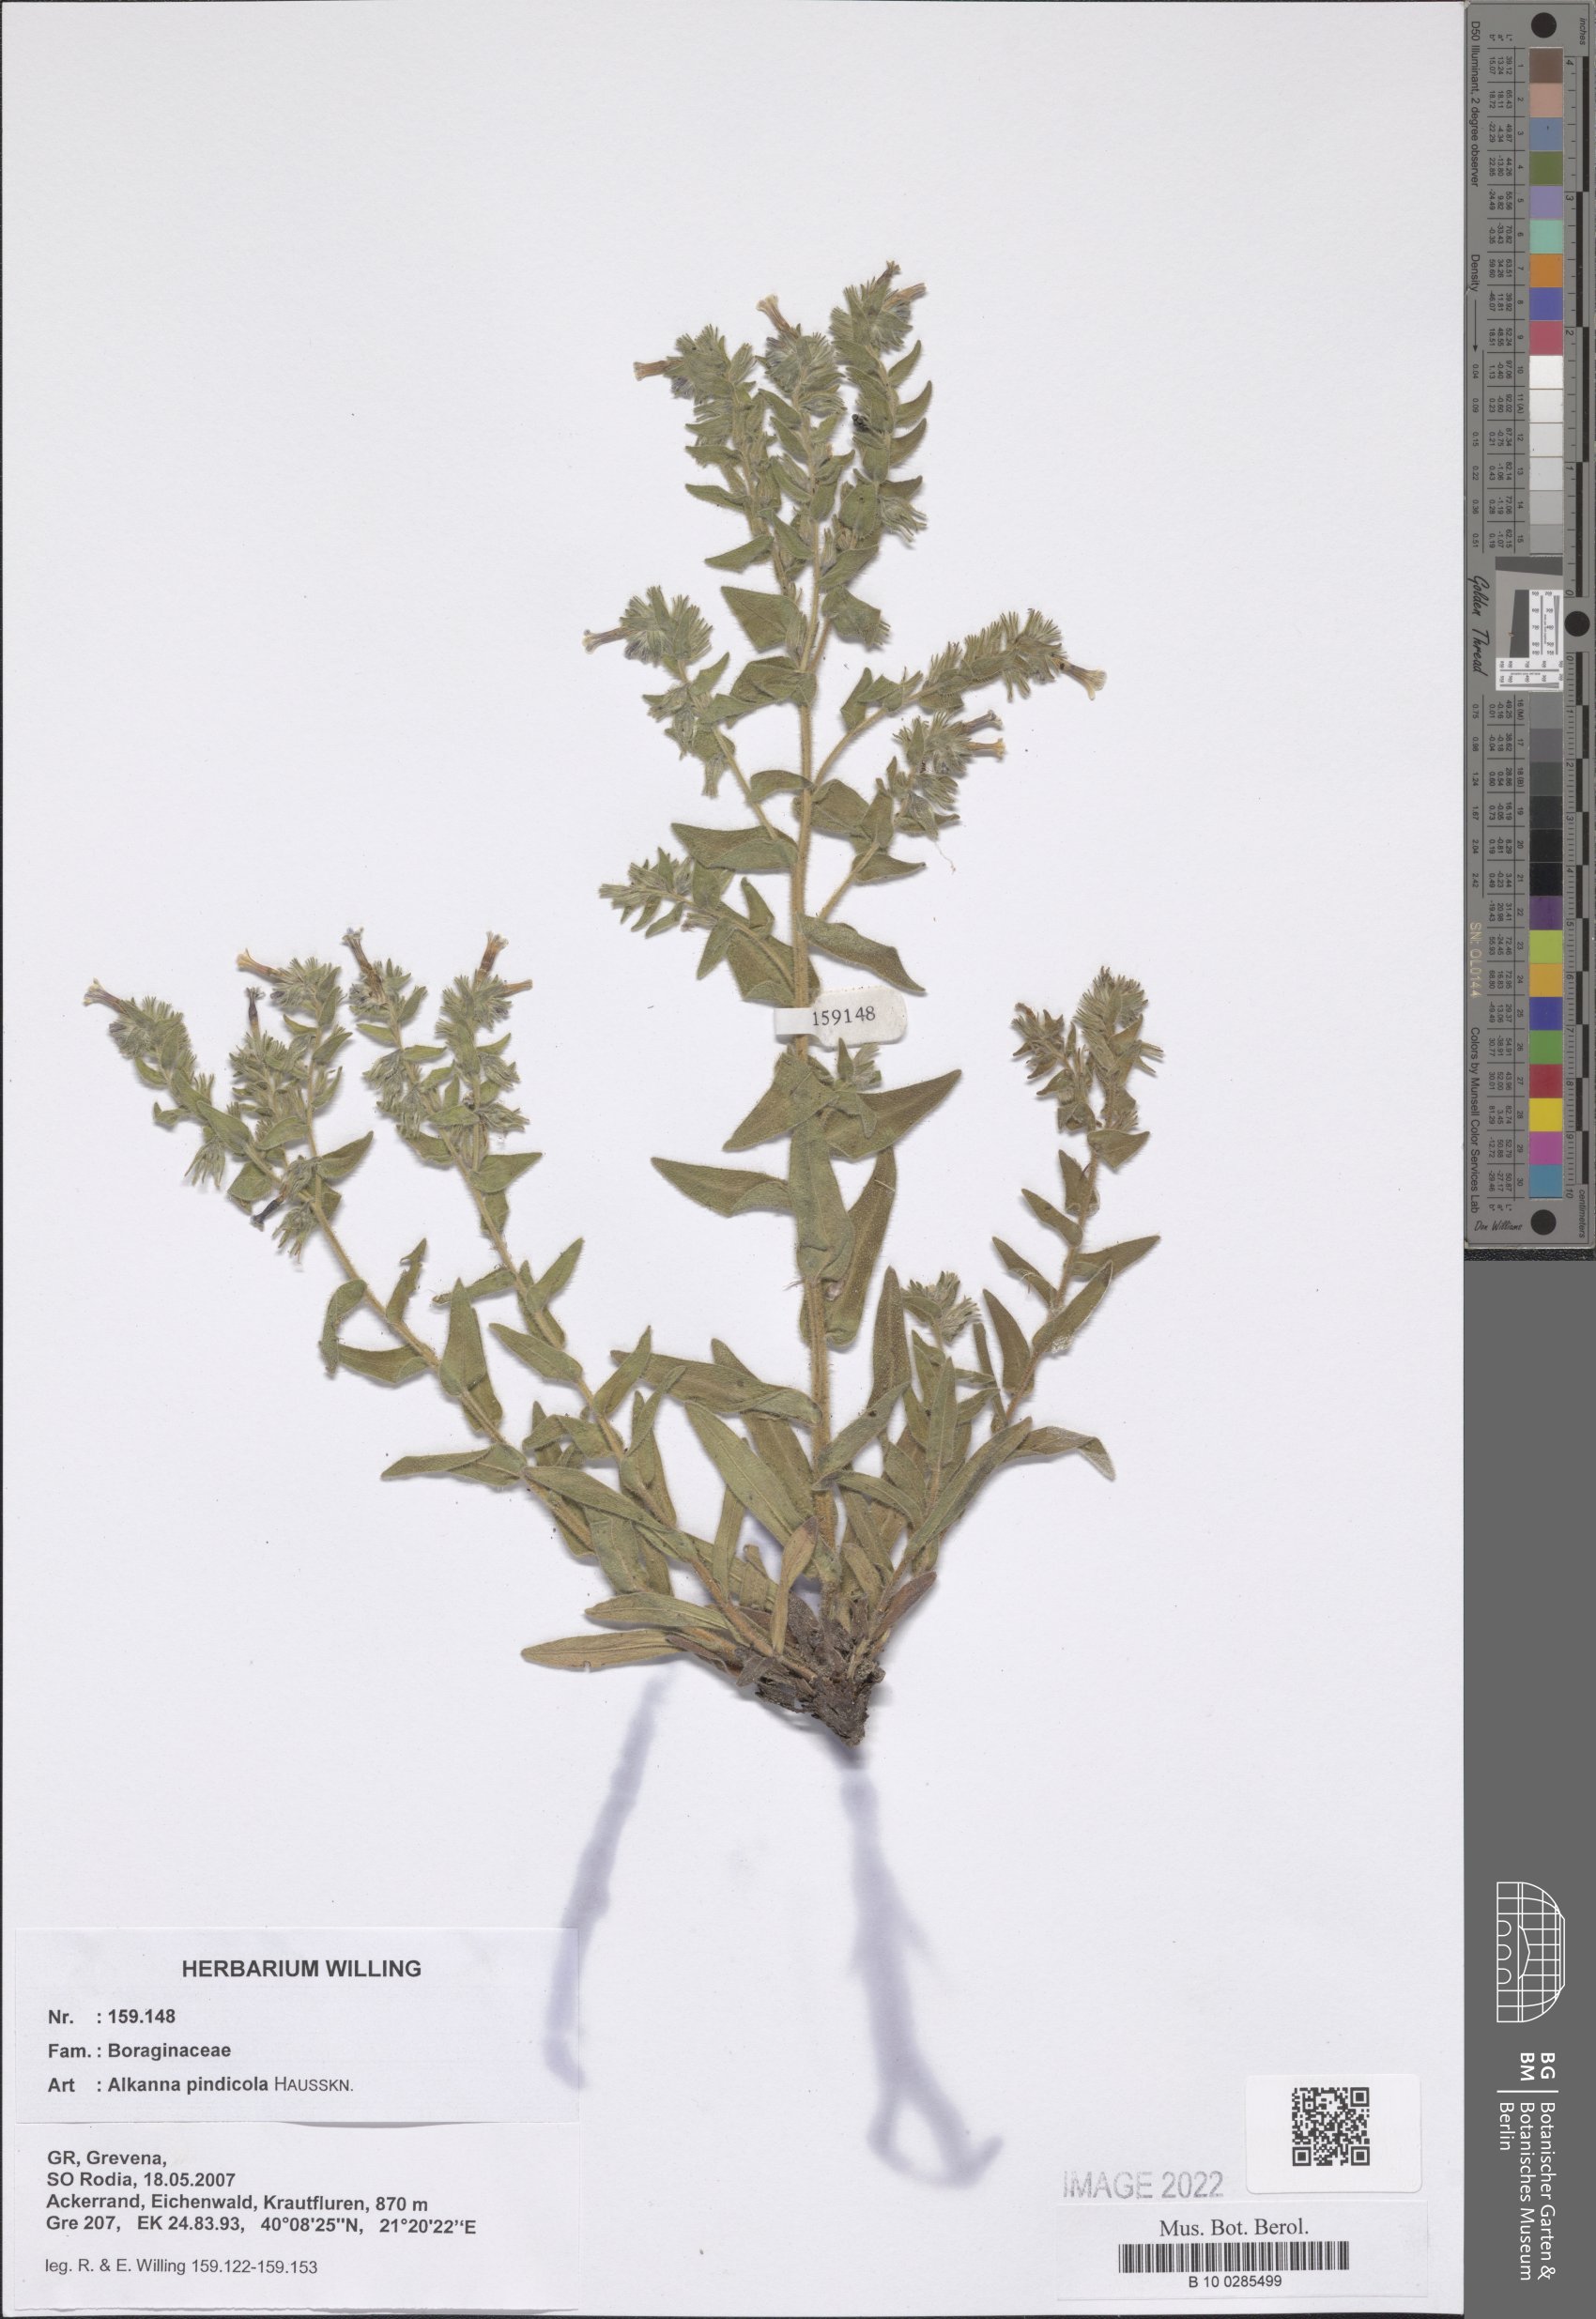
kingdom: Plantae
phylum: Tracheophyta
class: Magnoliopsida
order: Boraginales
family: Boraginaceae
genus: Alkanna
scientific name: Alkanna pindicola
